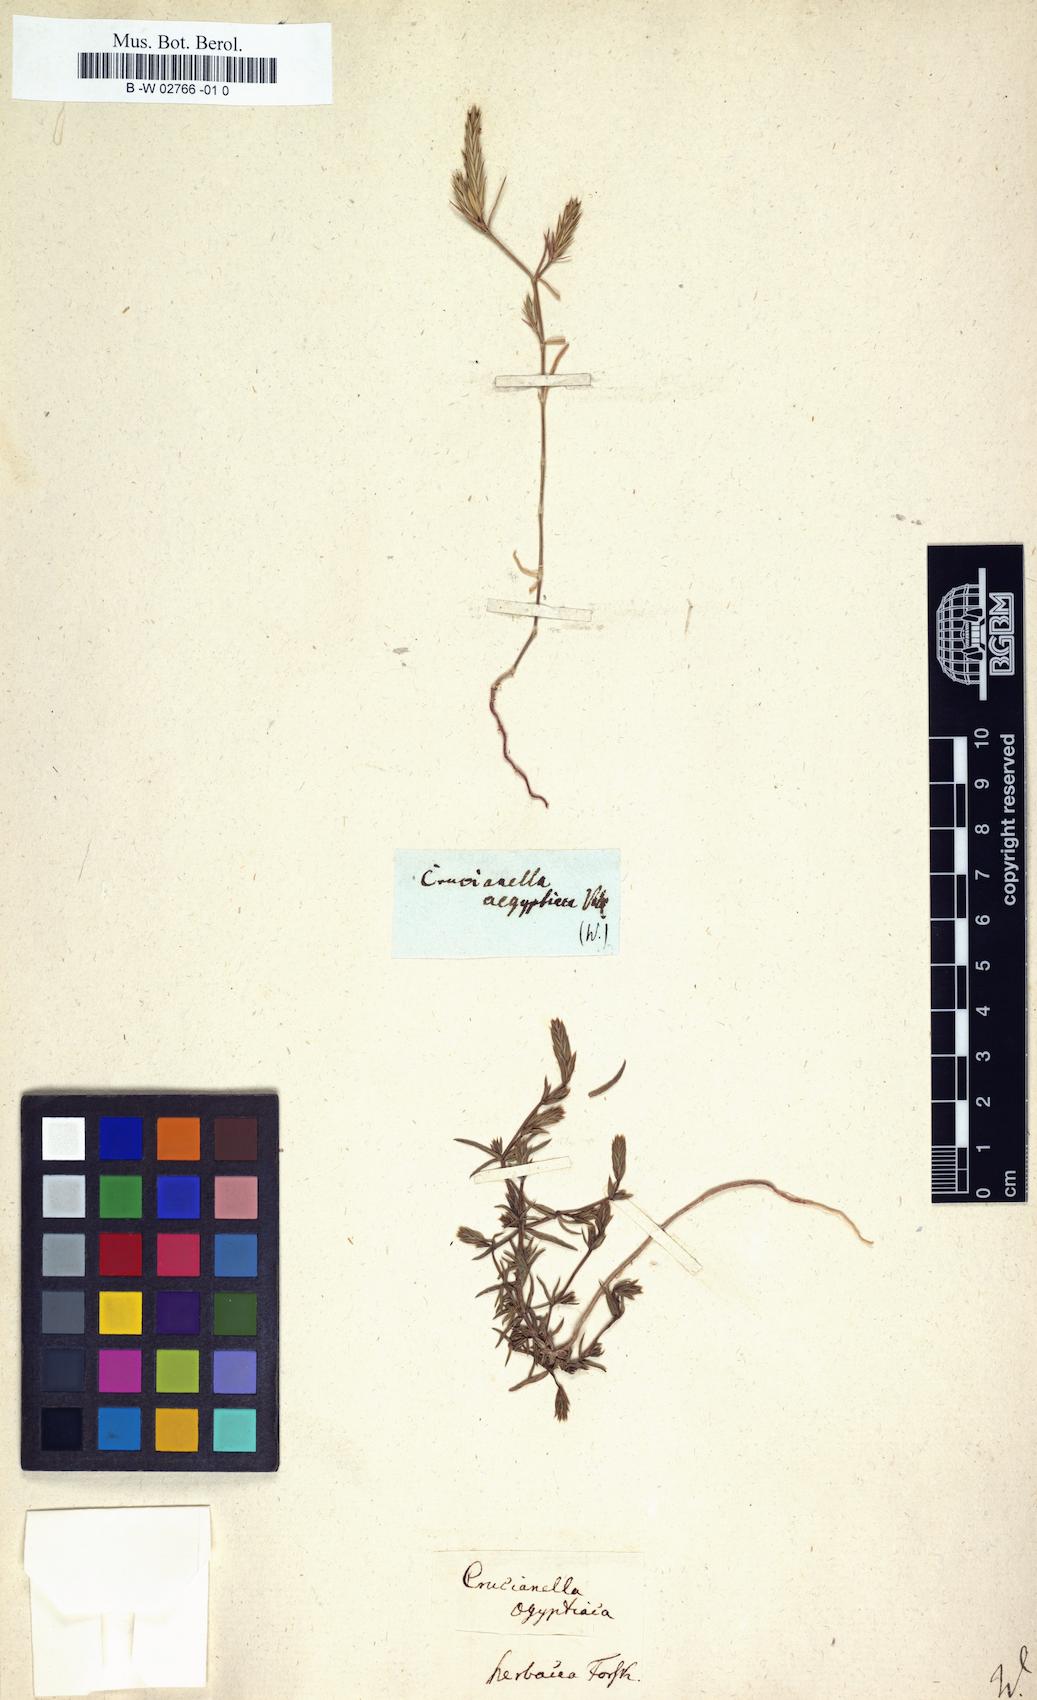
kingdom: Plantae
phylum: Tracheophyta
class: Magnoliopsida
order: Gentianales
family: Rubiaceae
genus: Crucianella
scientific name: Crucianella aegyptiaca
